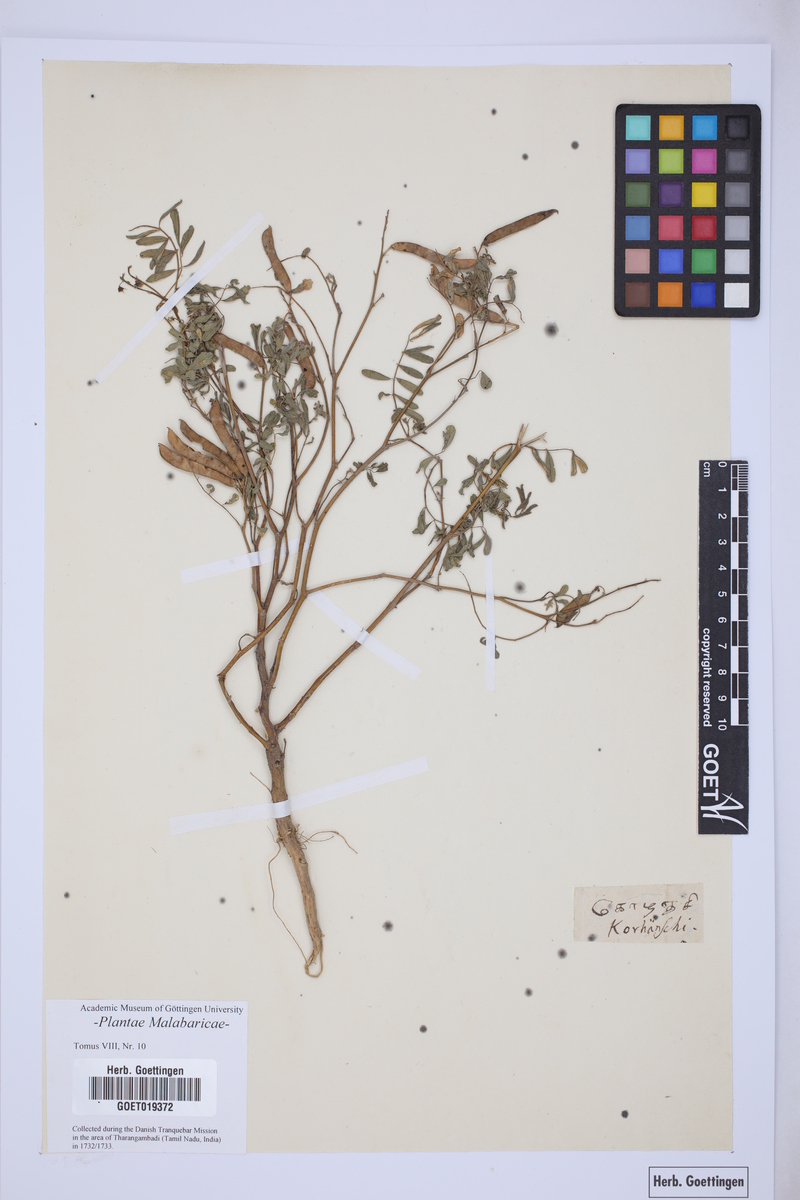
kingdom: Plantae
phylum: Tracheophyta
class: Magnoliopsida
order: Fabales
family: Fabaceae
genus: Tephrosia
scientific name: Tephrosia purpurea
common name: Fishpoison
